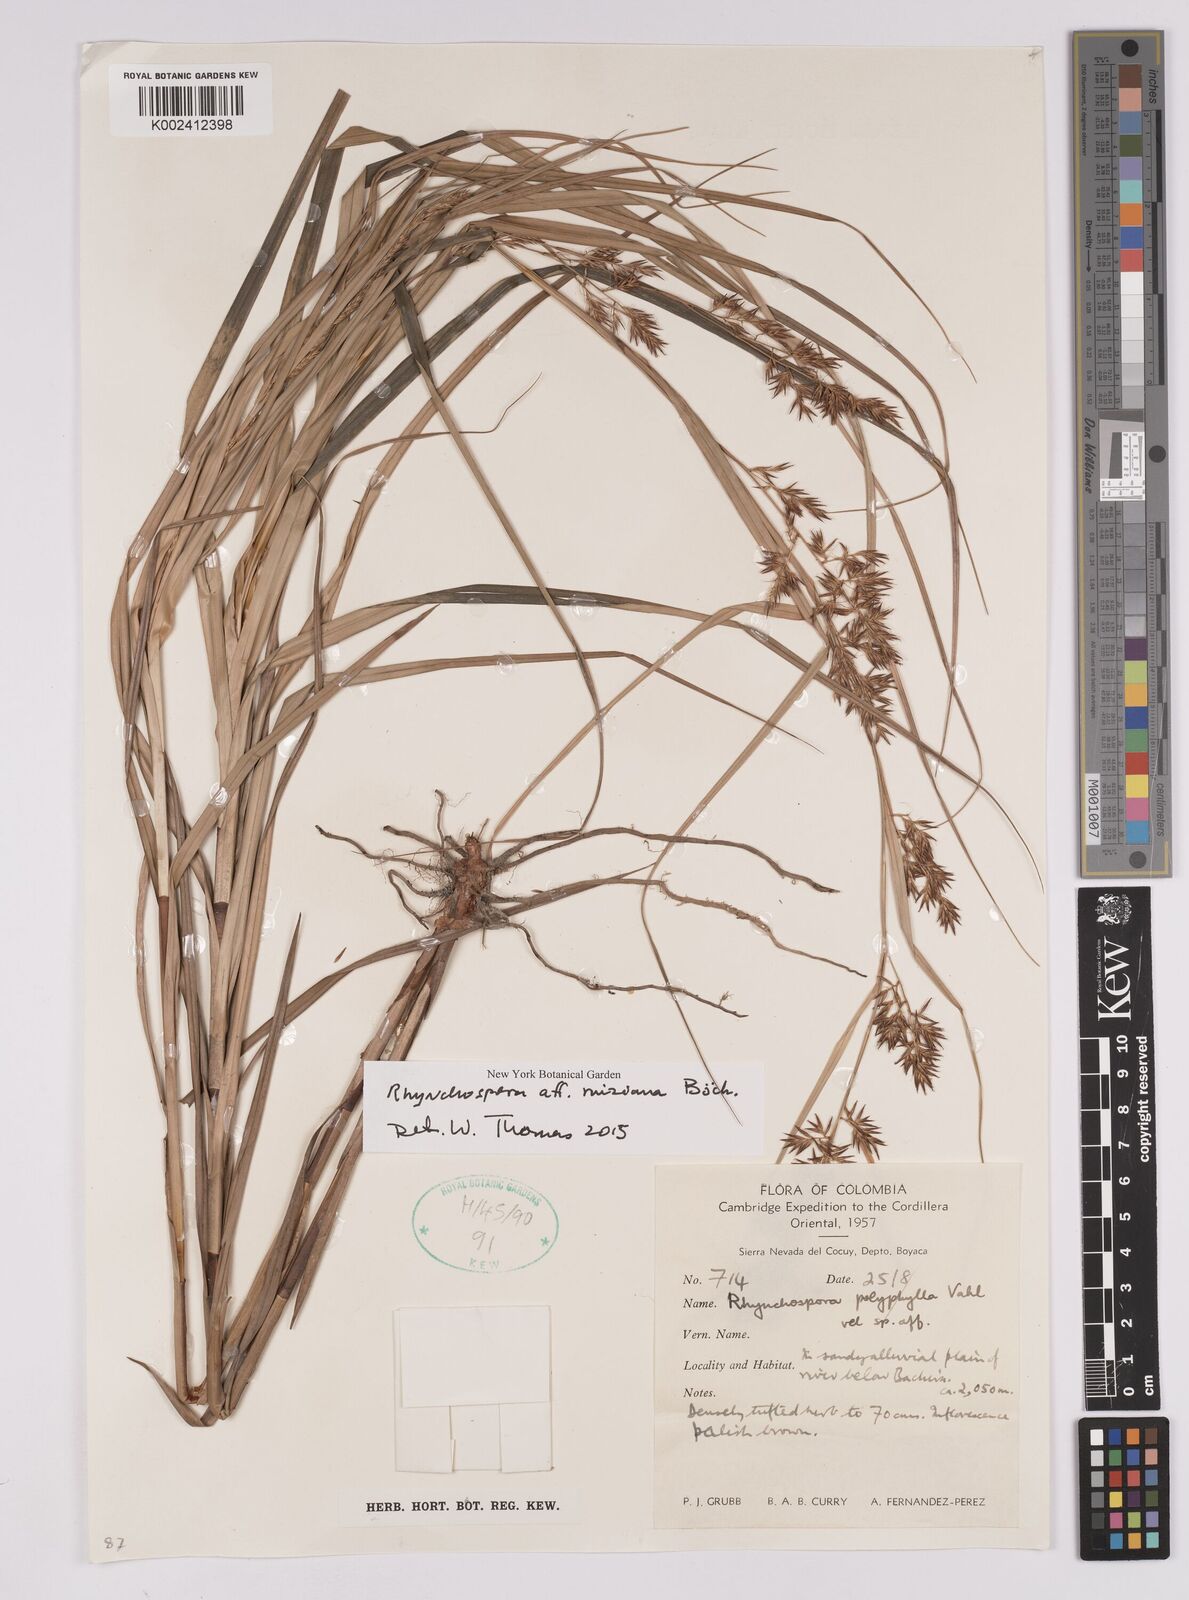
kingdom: Plantae
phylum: Tracheophyta
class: Liliopsida
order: Poales
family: Cyperaceae
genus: Rhynchospora
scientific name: Rhynchospora ruiziana
